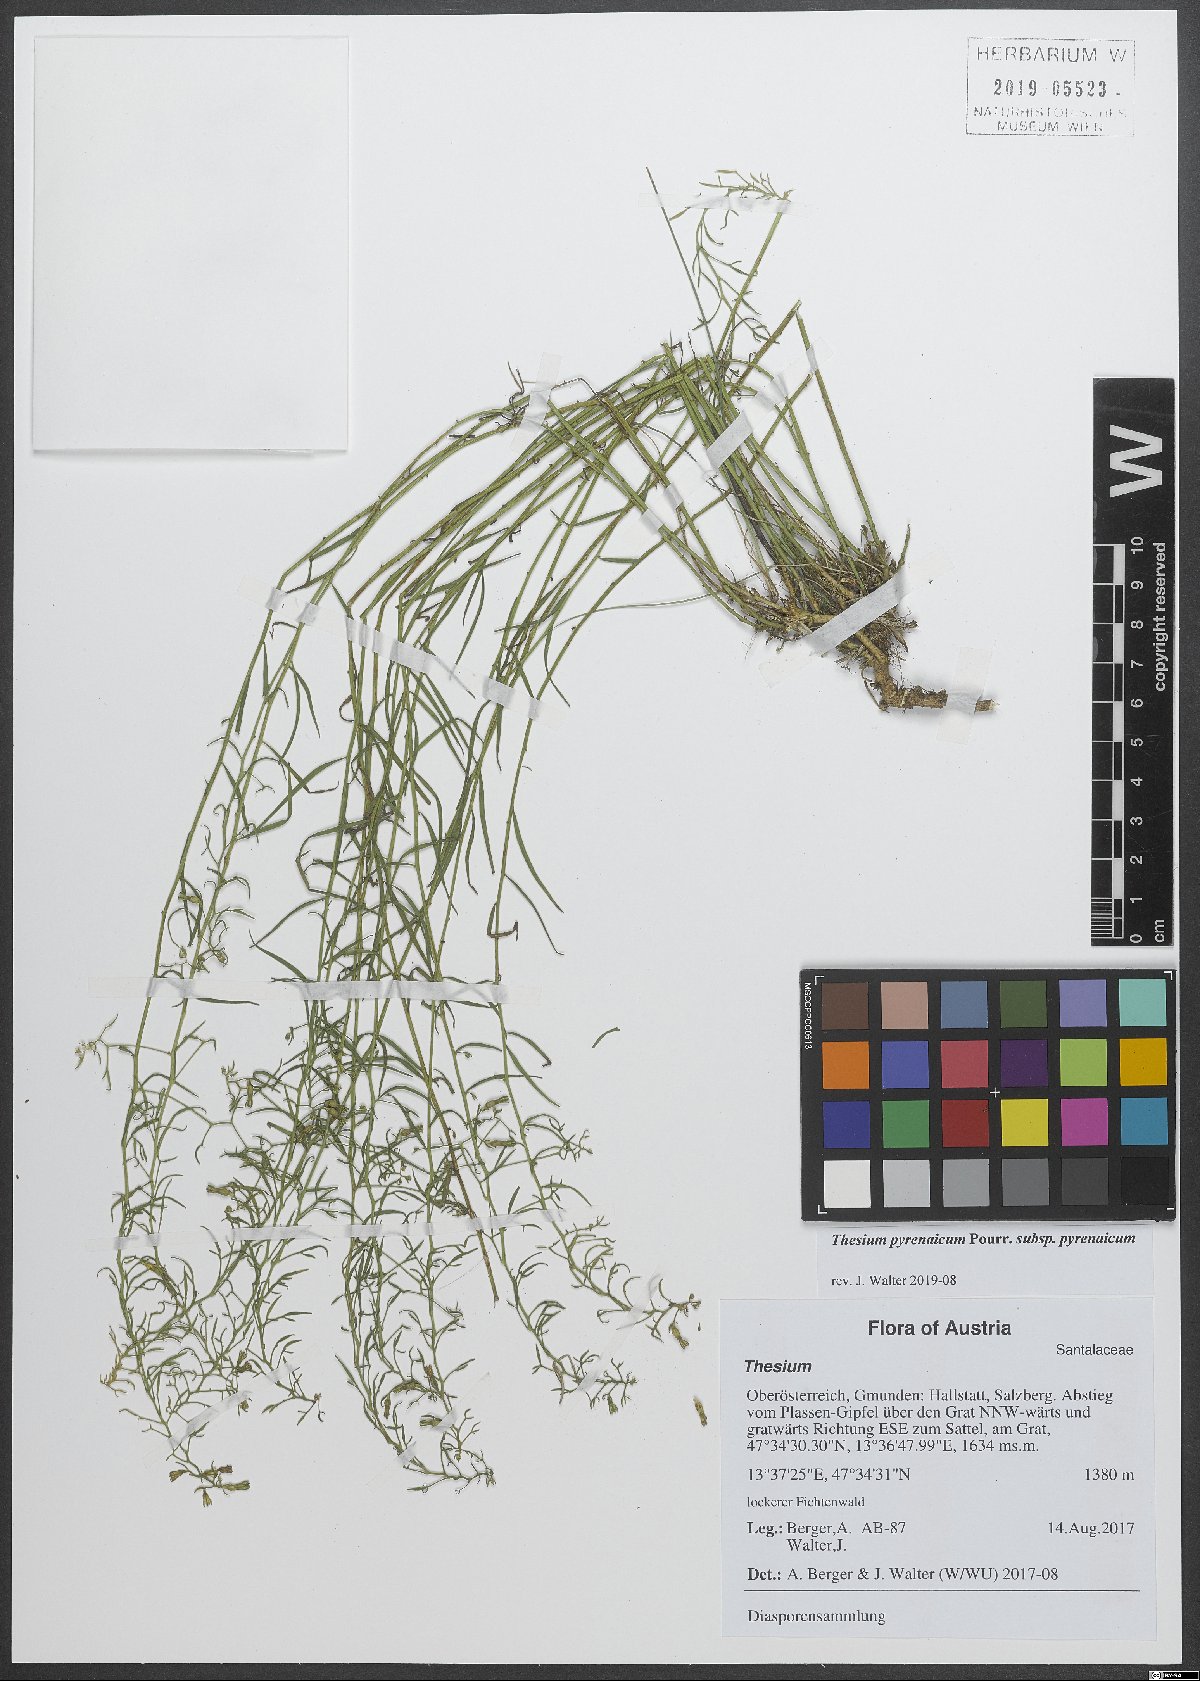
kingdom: Plantae
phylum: Tracheophyta
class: Magnoliopsida
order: Santalales
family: Thesiaceae
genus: Thesium
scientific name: Thesium pyrenaicum
